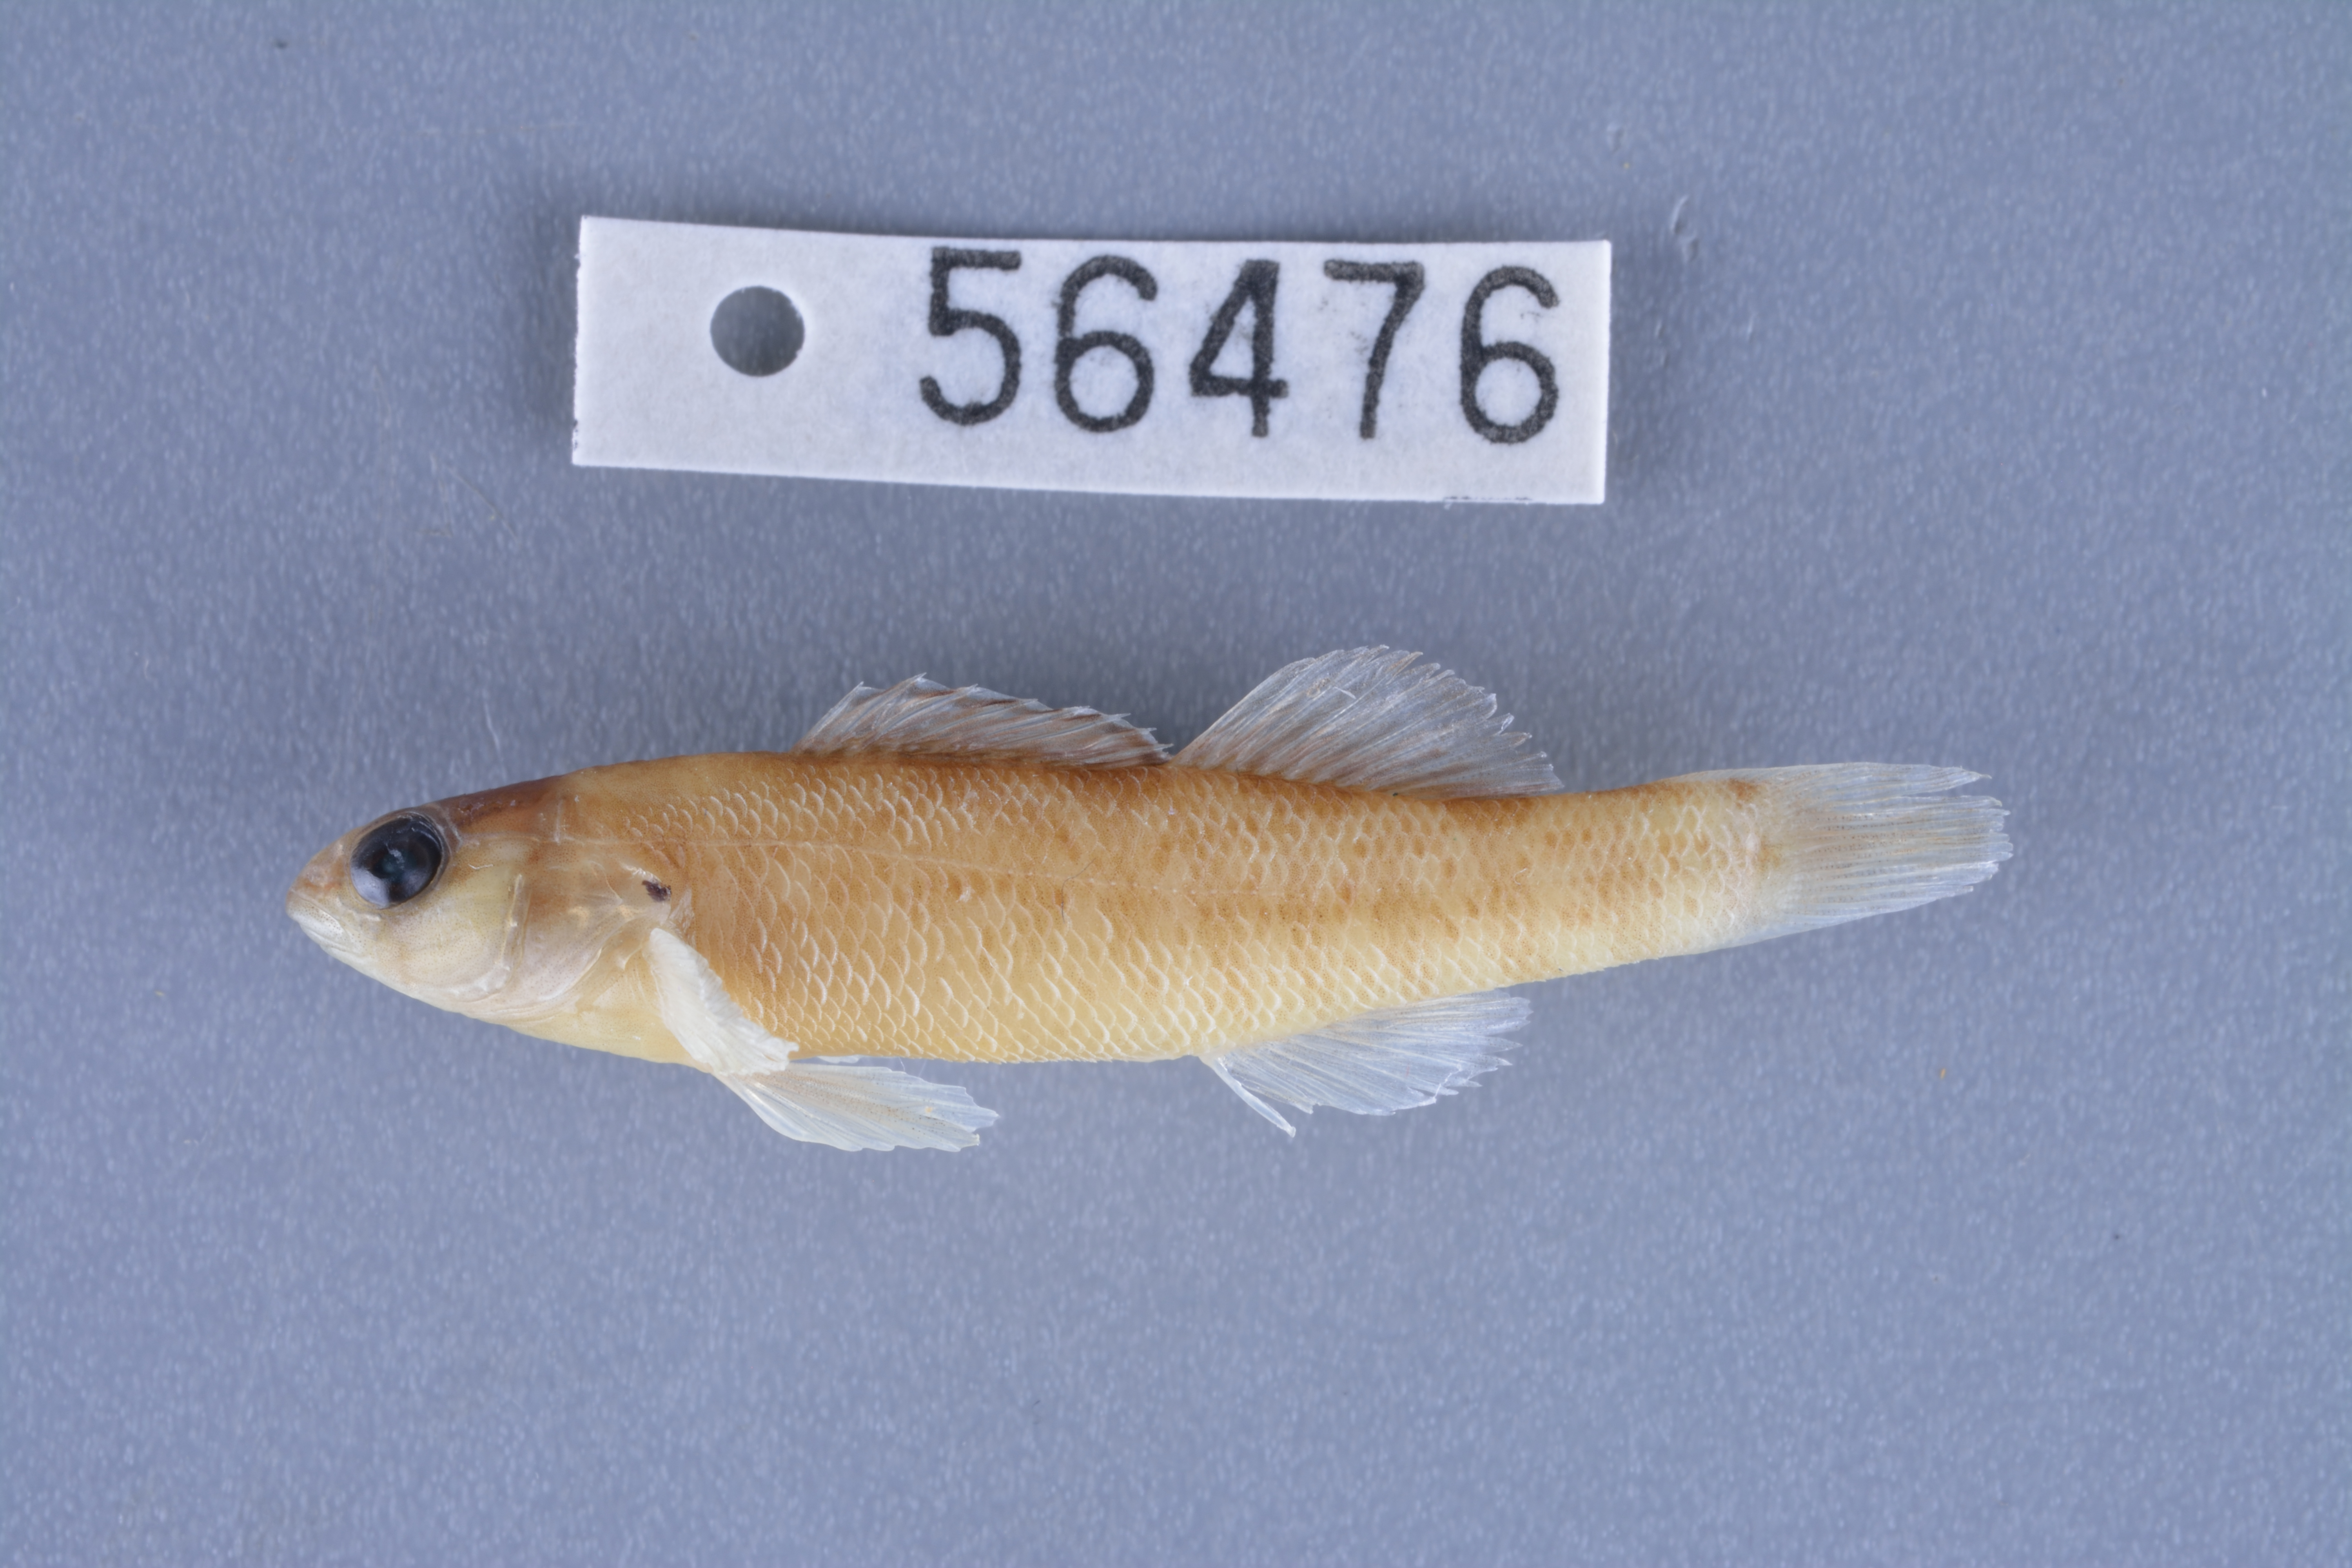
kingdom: Animalia
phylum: Chordata
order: Perciformes
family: Percidae
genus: Etheostoma
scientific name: Etheostoma spectabile
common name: Orangethroat darter
